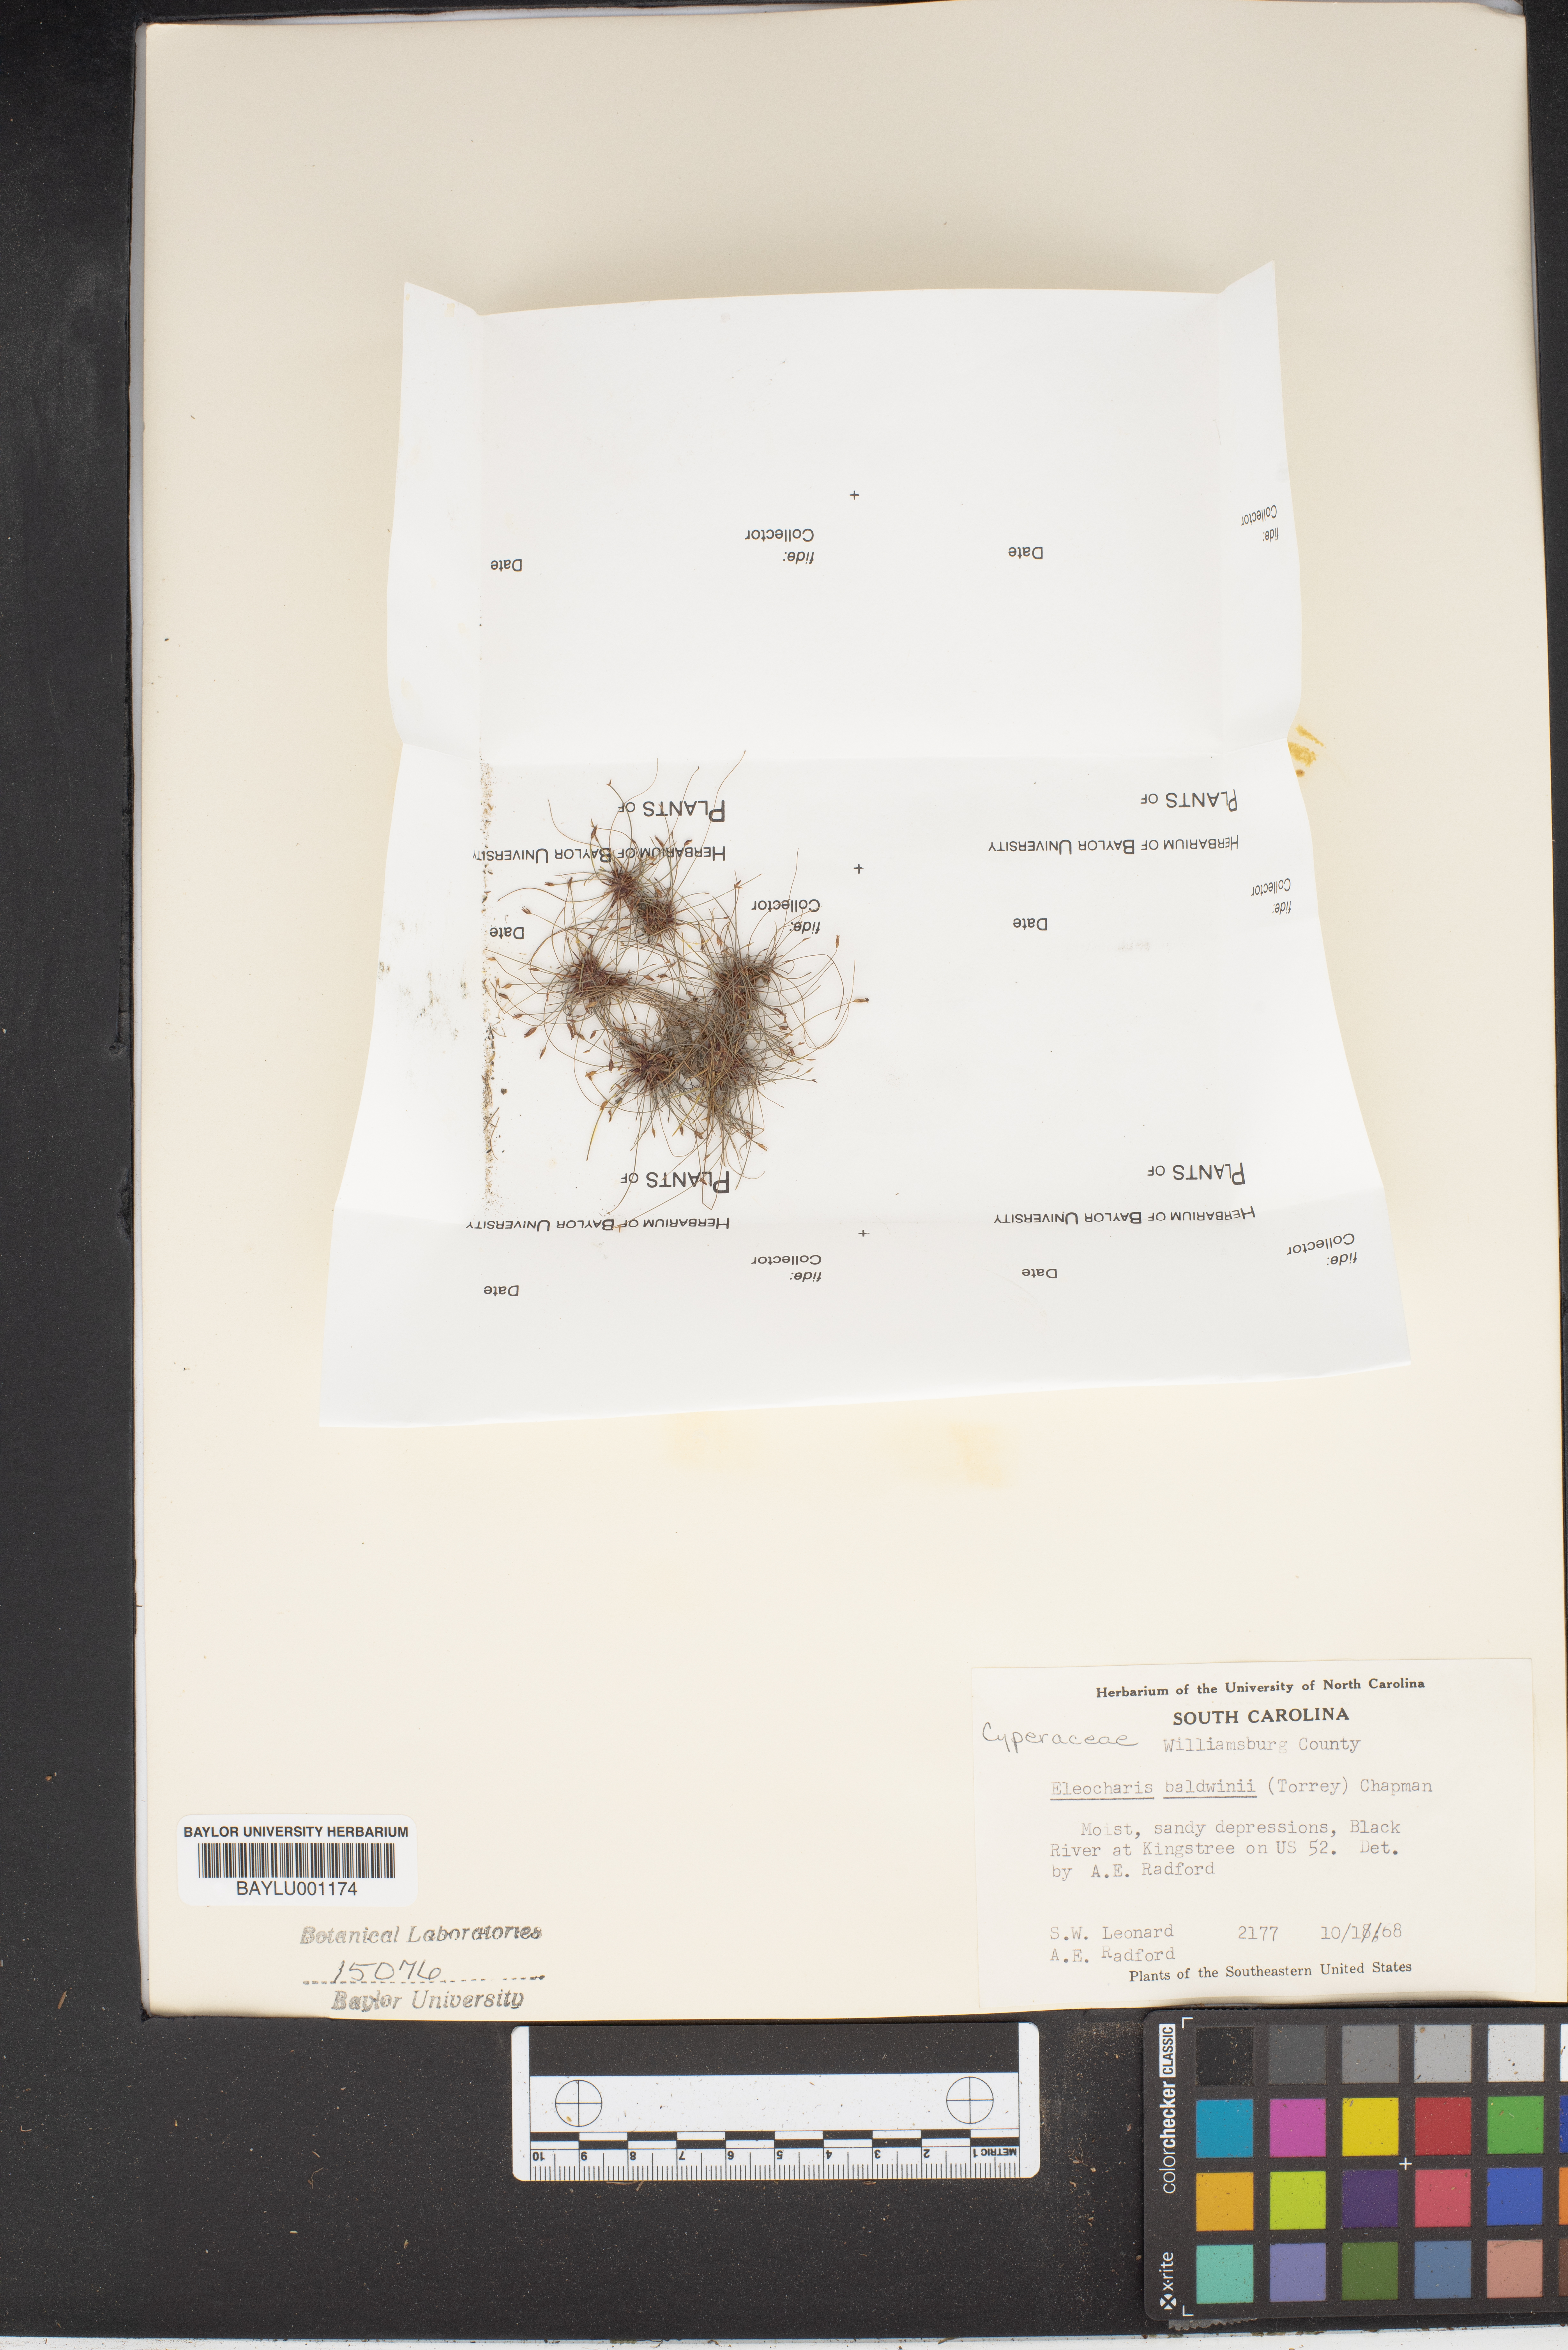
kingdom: Plantae
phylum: Tracheophyta
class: Liliopsida
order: Poales
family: Cyperaceae
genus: Eleocharis
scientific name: Eleocharis baldwinii
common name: Baldwin's spike-rush
